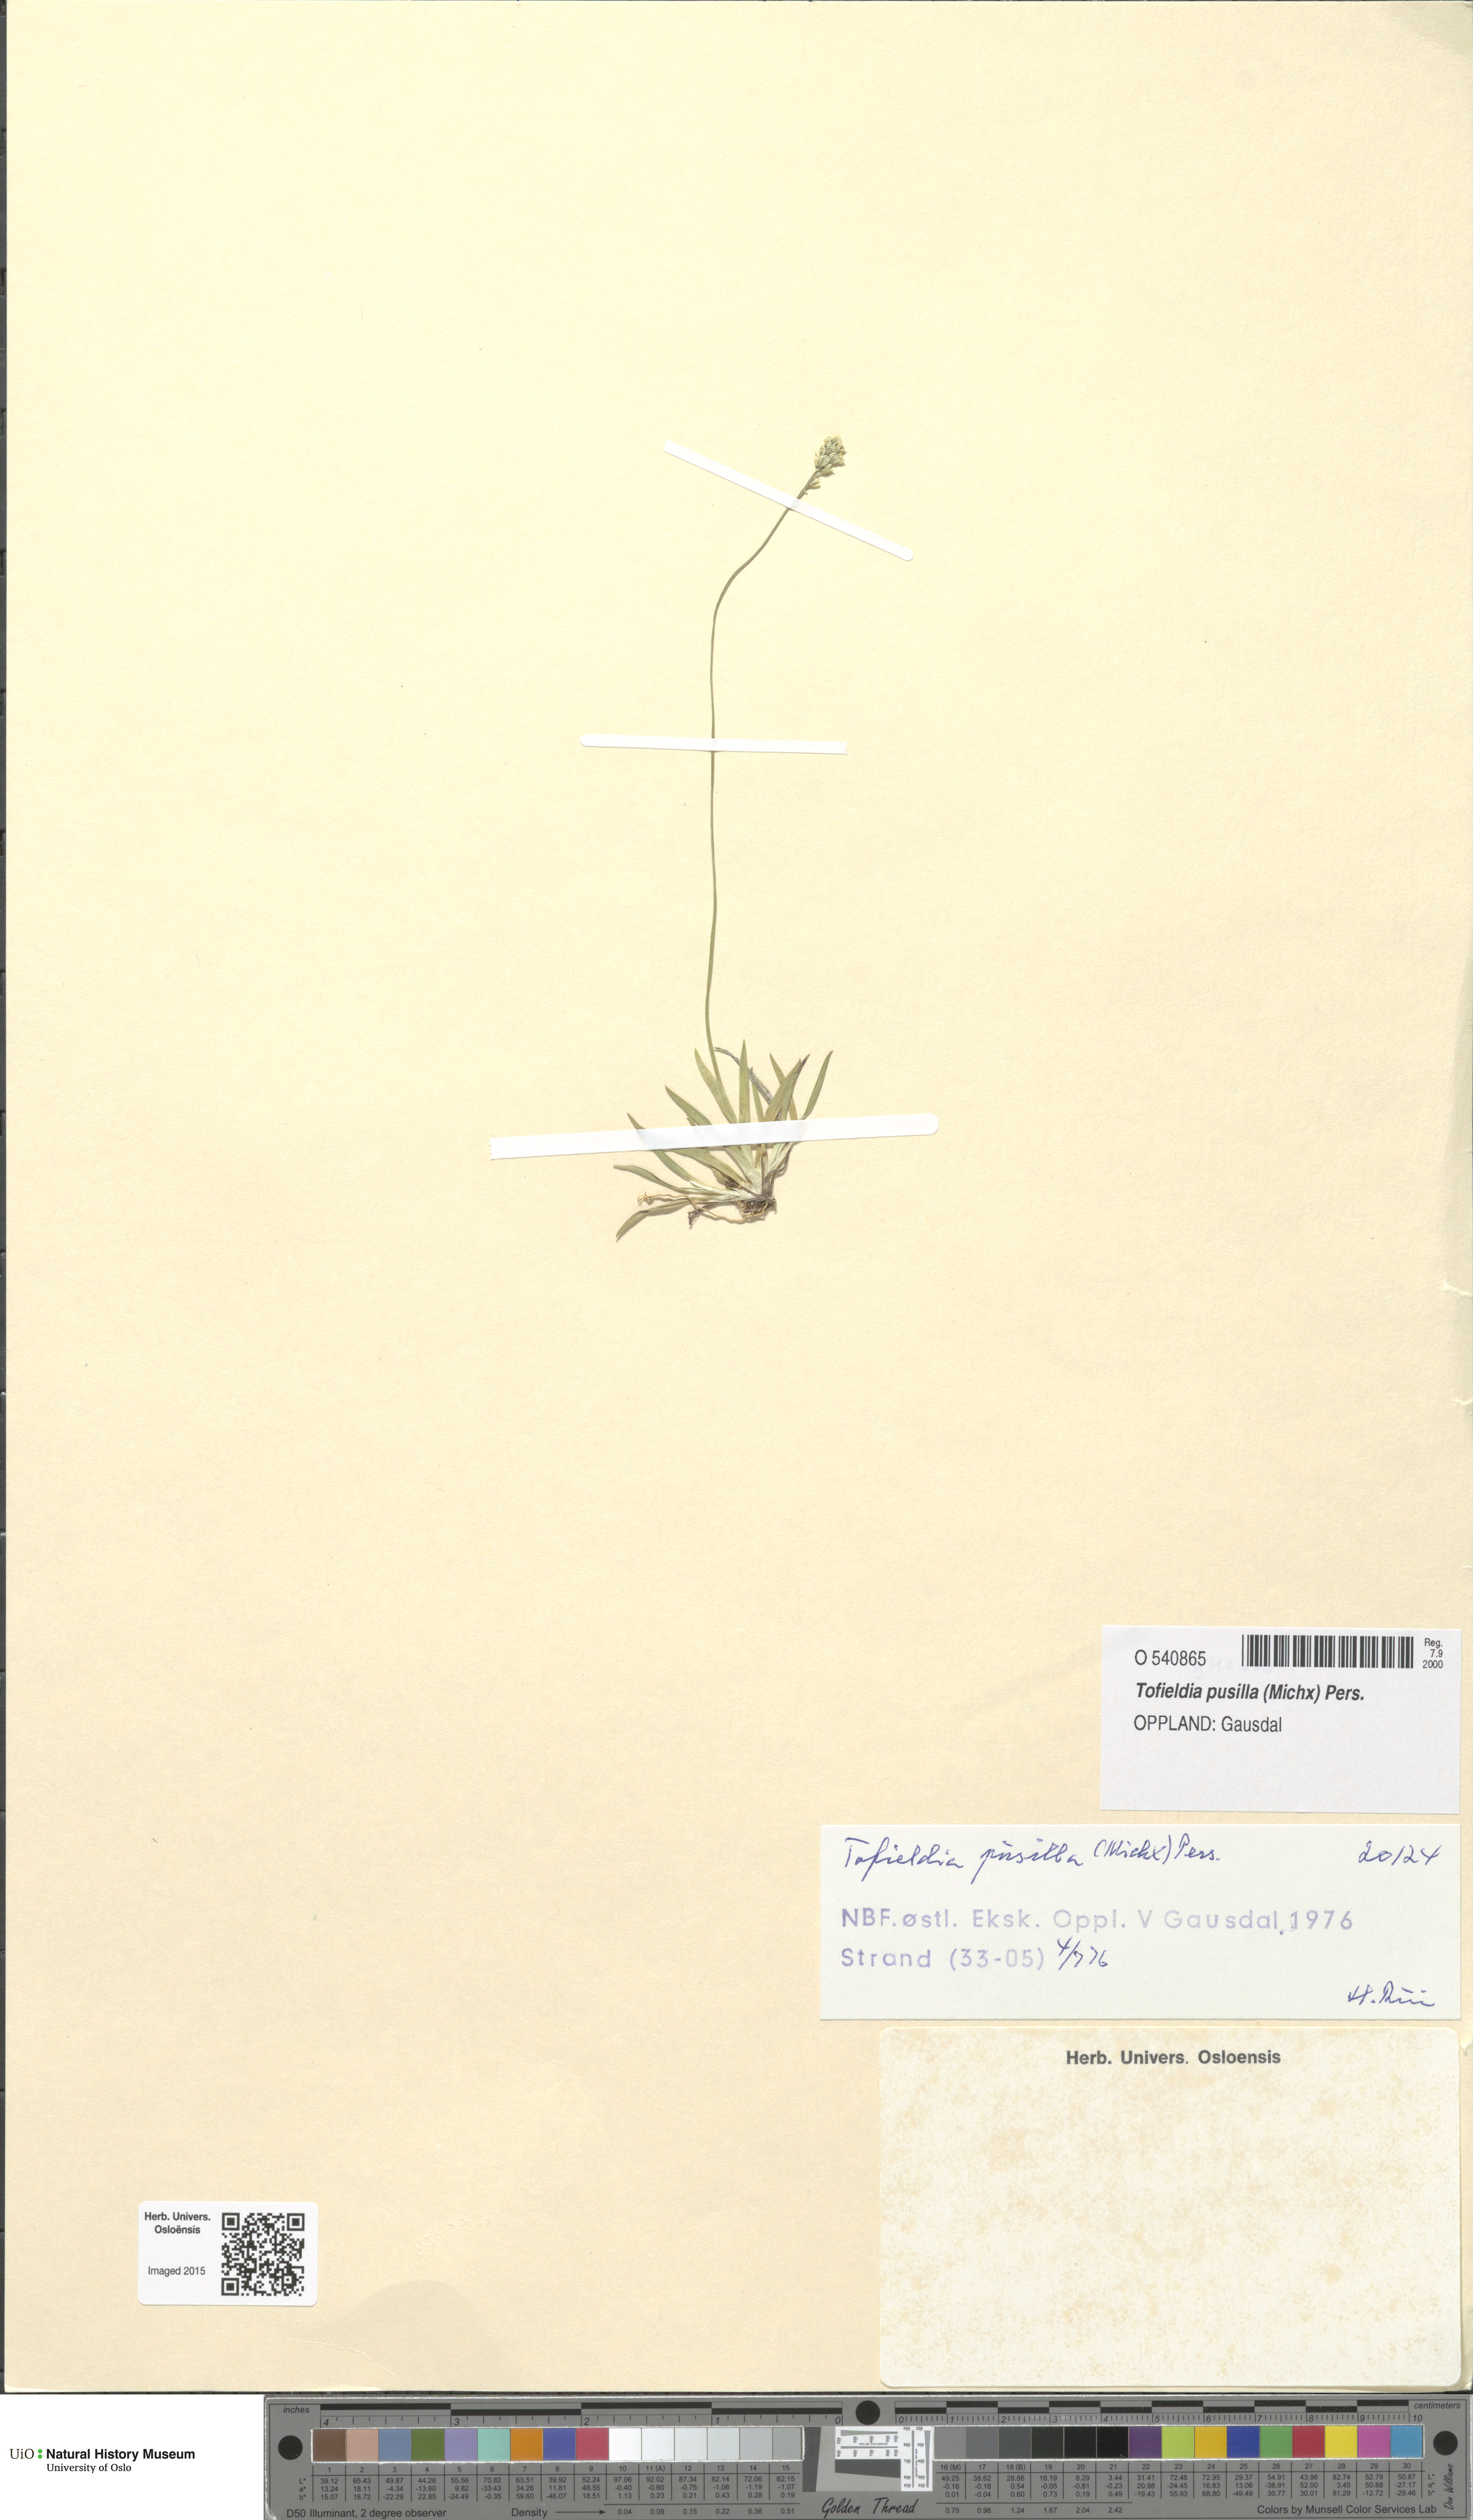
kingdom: Plantae
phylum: Tracheophyta
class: Liliopsida
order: Alismatales
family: Tofieldiaceae
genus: Tofieldia
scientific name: Tofieldia pusilla
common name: Scottish false asphodel
